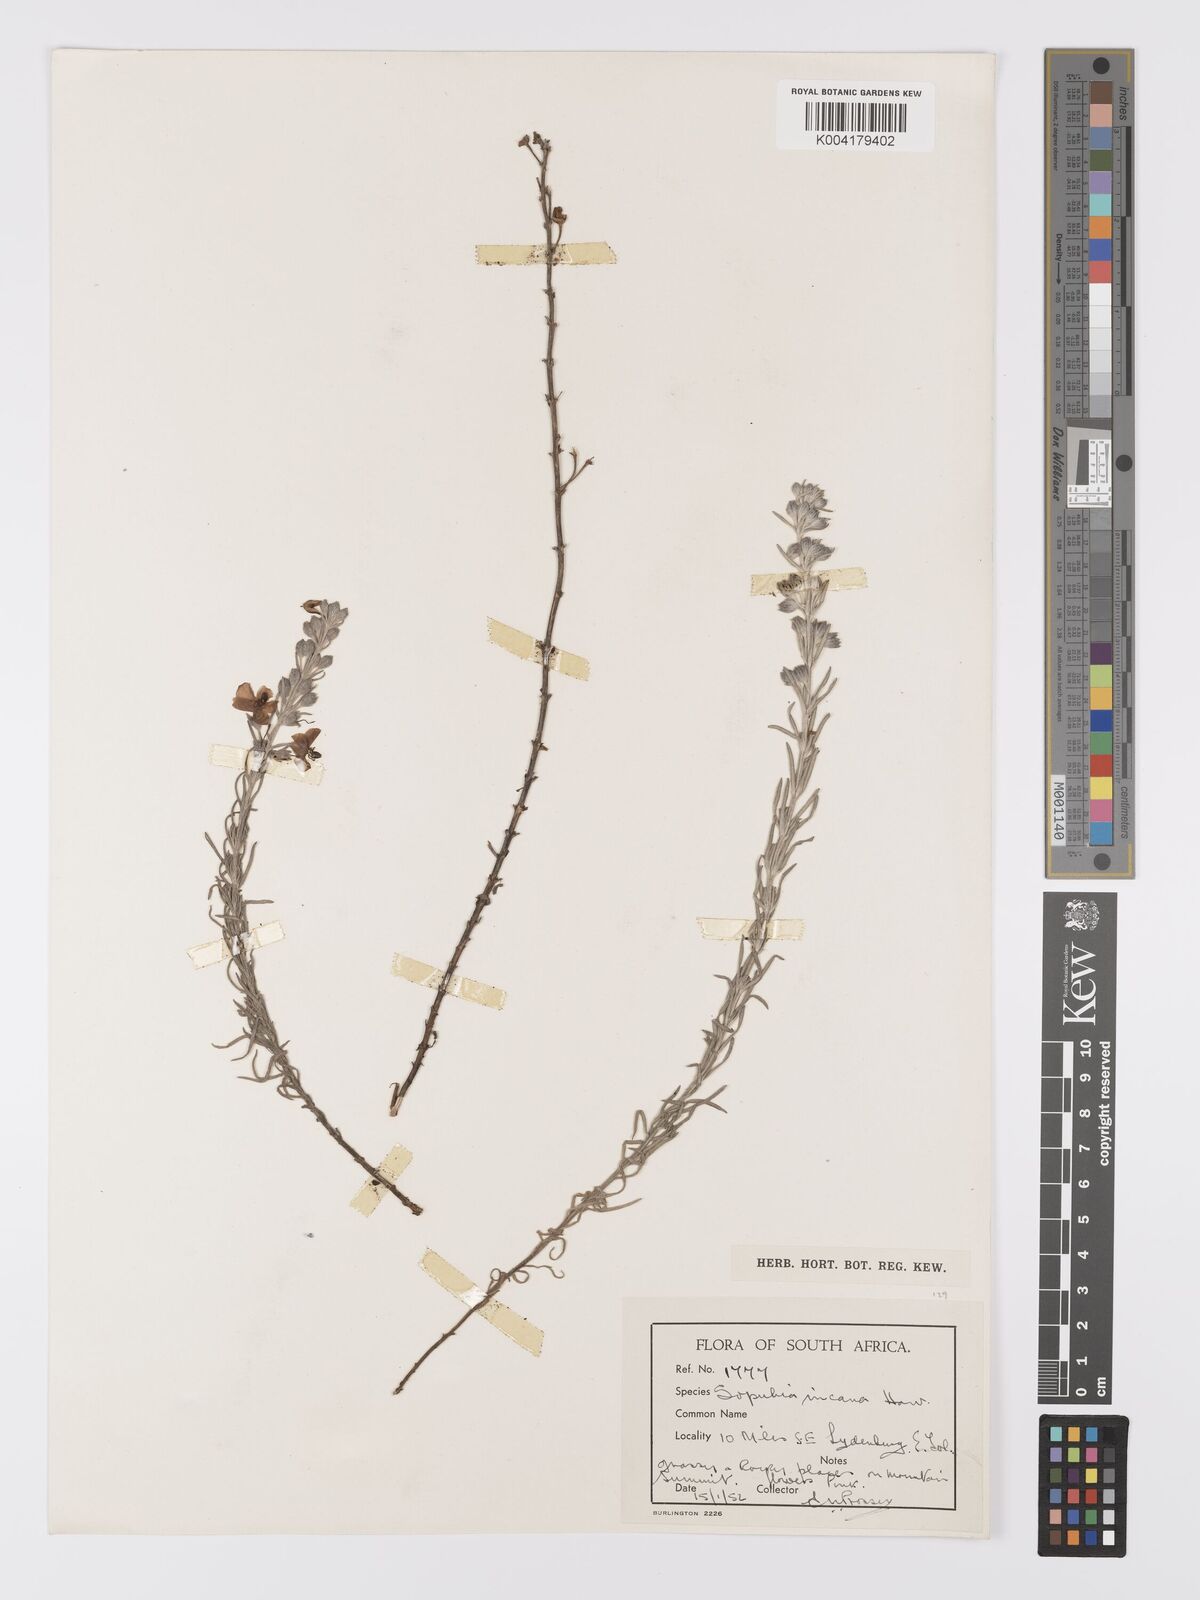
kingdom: Plantae
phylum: Tracheophyta
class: Magnoliopsida
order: Lamiales
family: Orobanchaceae
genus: Sopubia
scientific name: Sopubia cana
